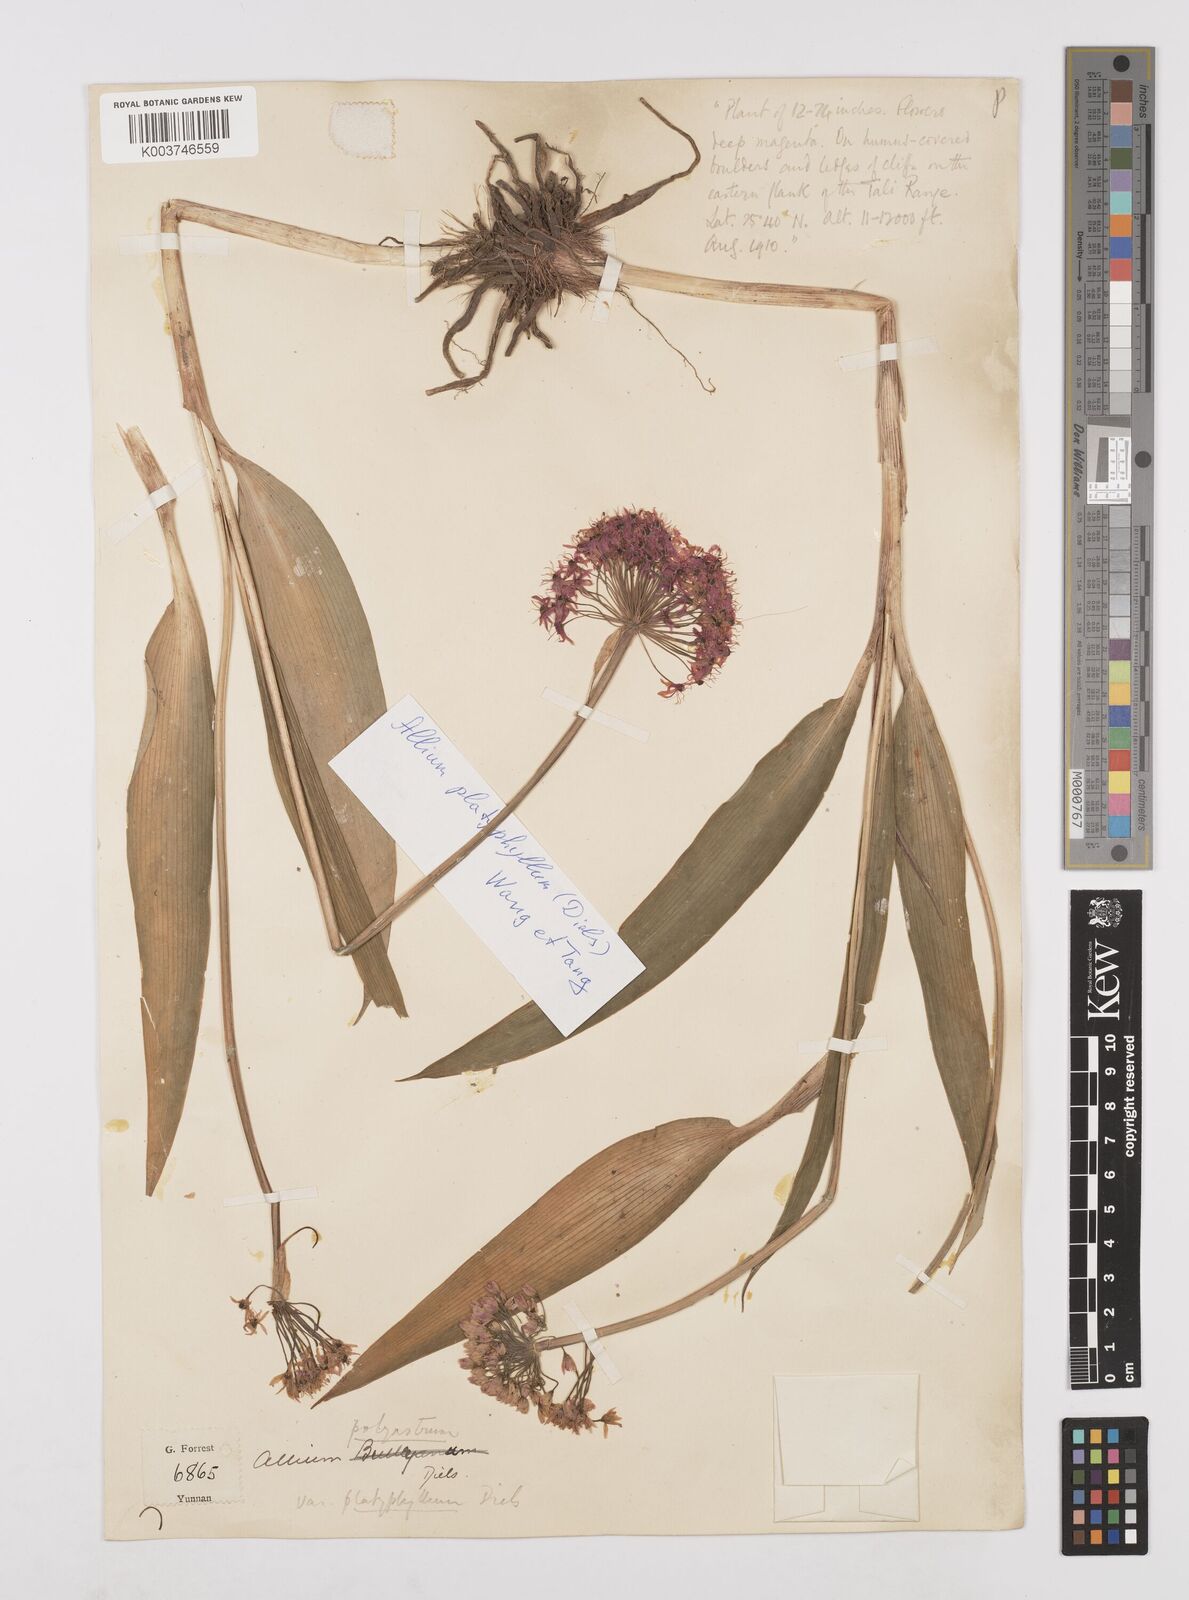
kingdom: Plantae
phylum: Tracheophyta
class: Liliopsida
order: Asparagales
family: Amaryllidaceae
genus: Allium
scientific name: Allium wallichii
